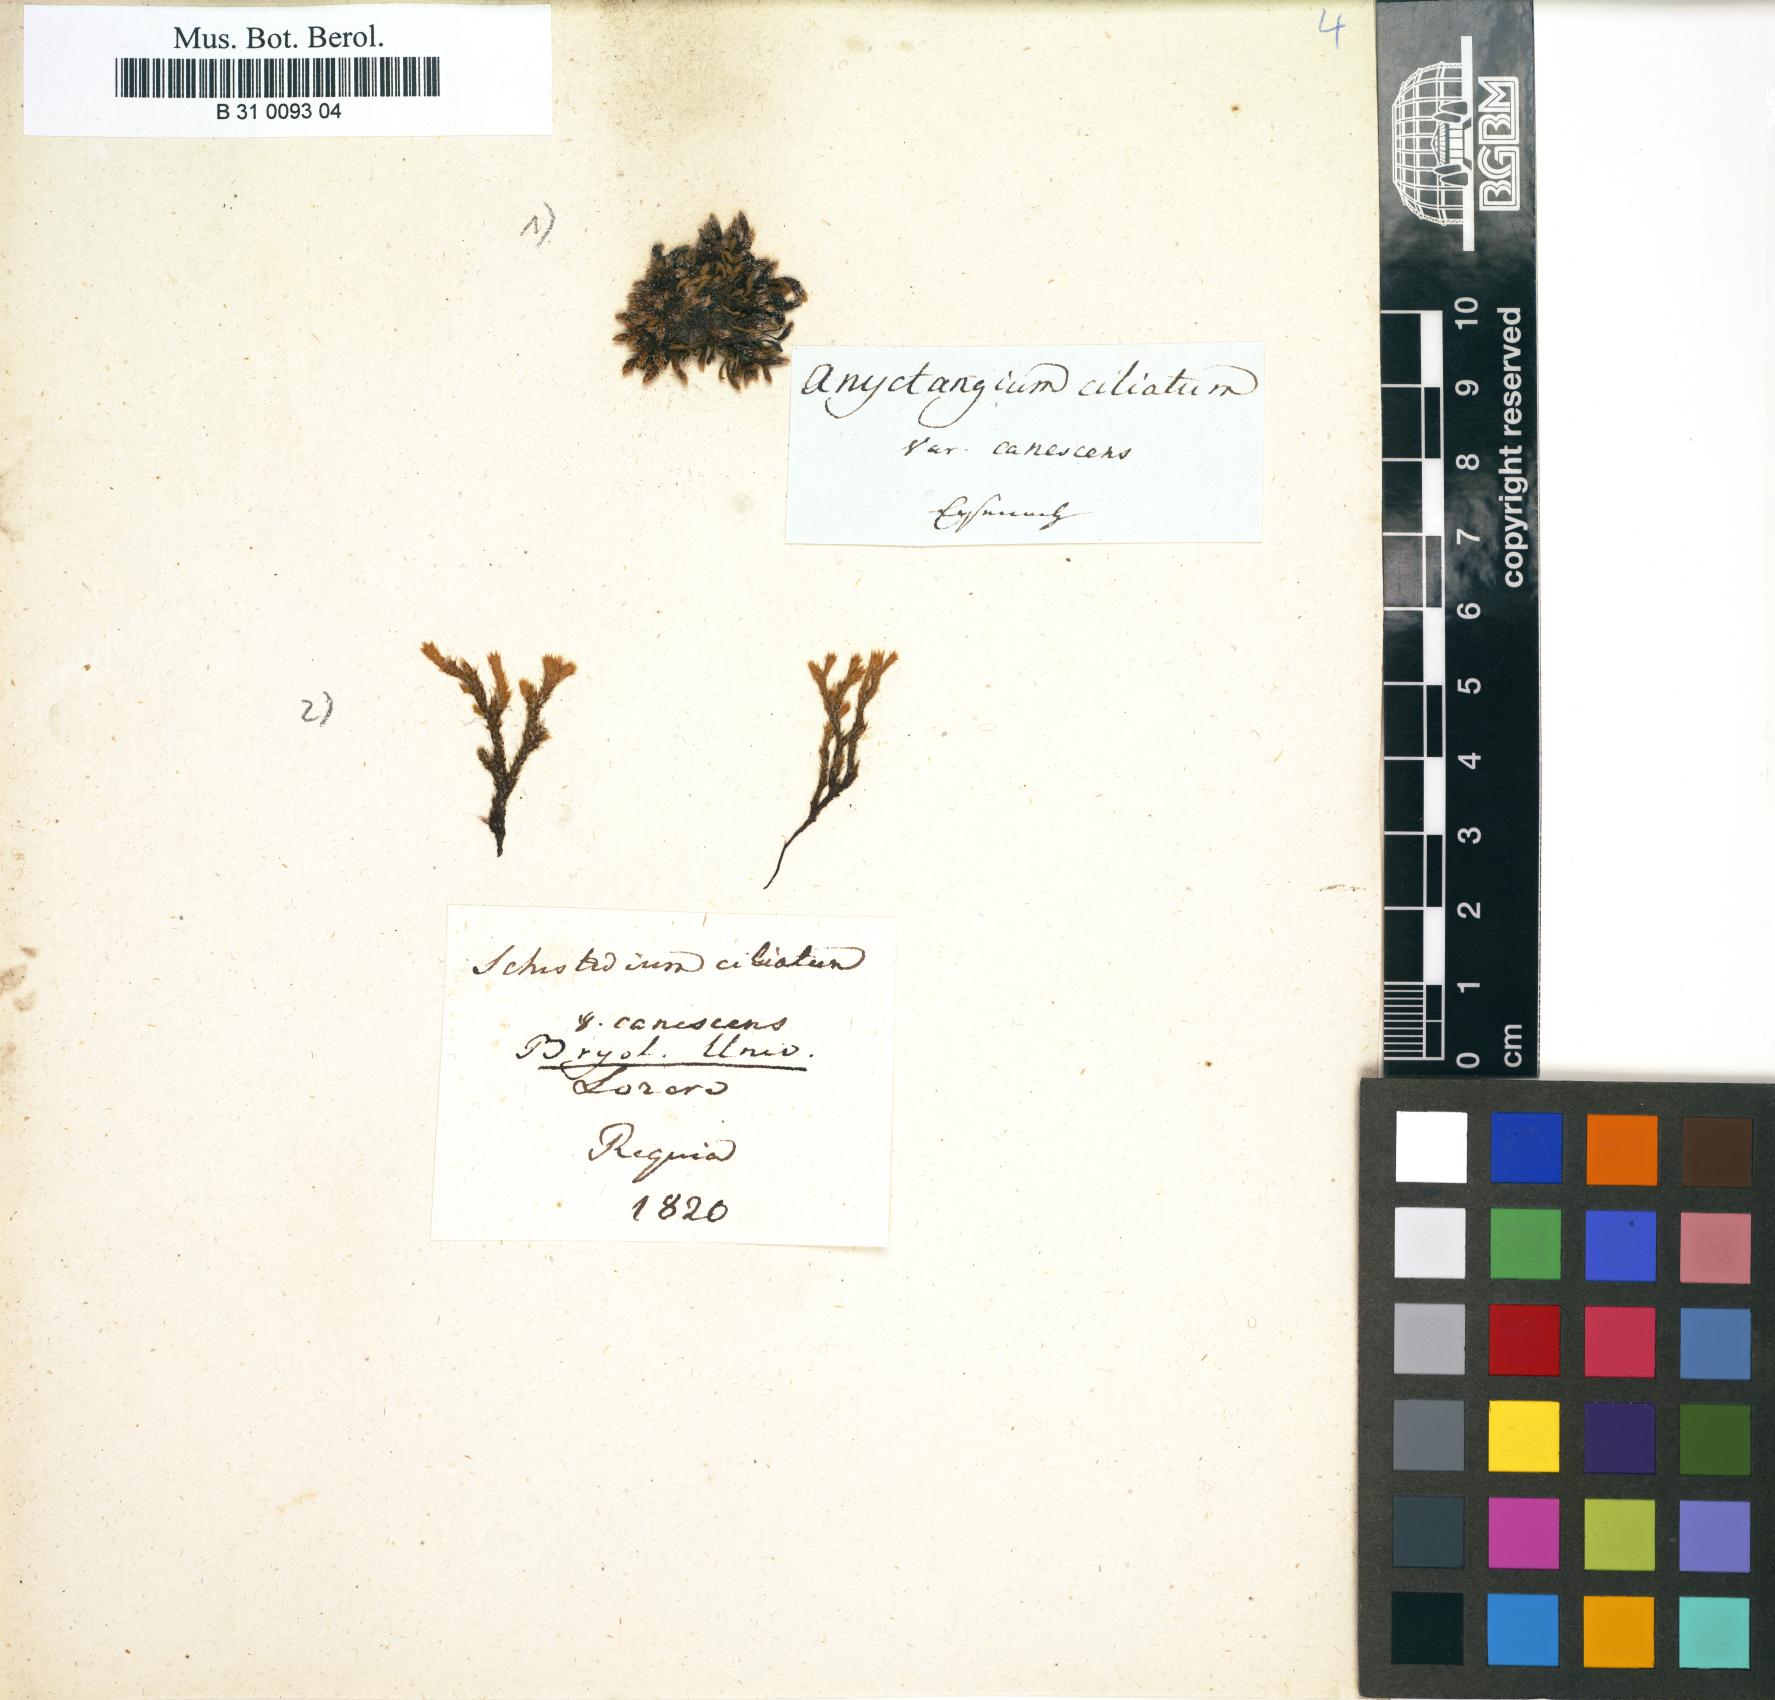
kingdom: Plantae
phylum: Bryophyta
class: Bryopsida
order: Hedwigiales
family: Hedwigiaceae
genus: Hedwigia
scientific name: Hedwigia ciliata
